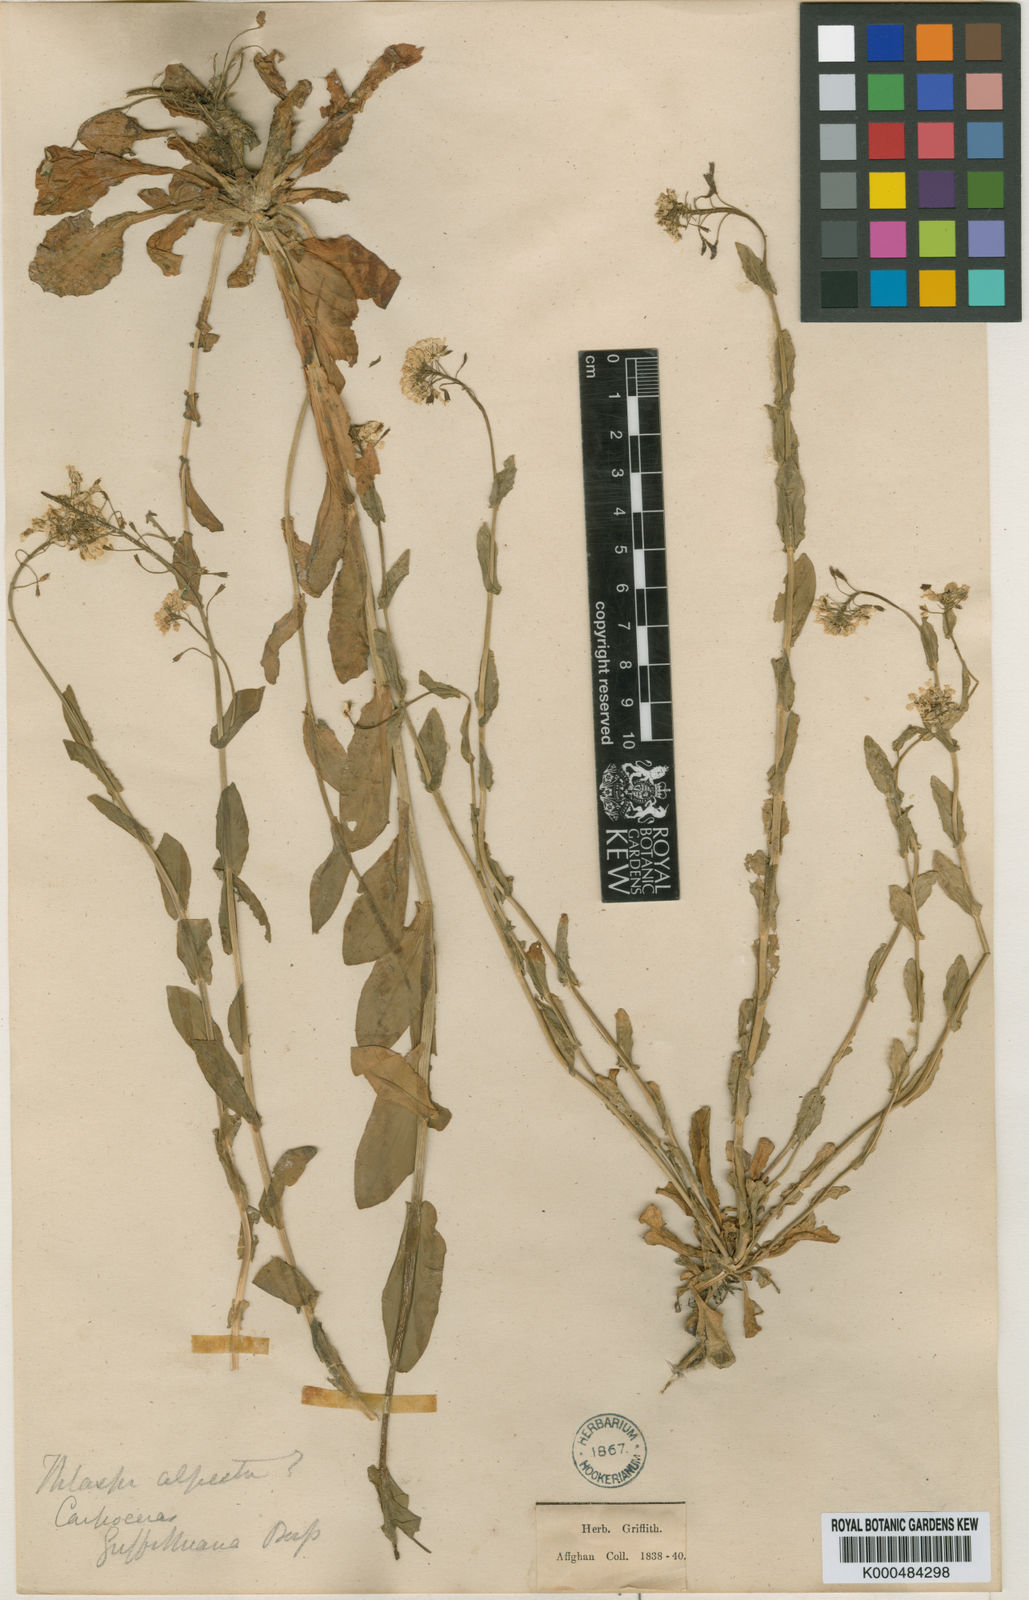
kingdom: Plantae
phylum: Tracheophyta
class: Magnoliopsida
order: Brassicales
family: Brassicaceae
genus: Noccaea
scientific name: Noccaea griffithiana
